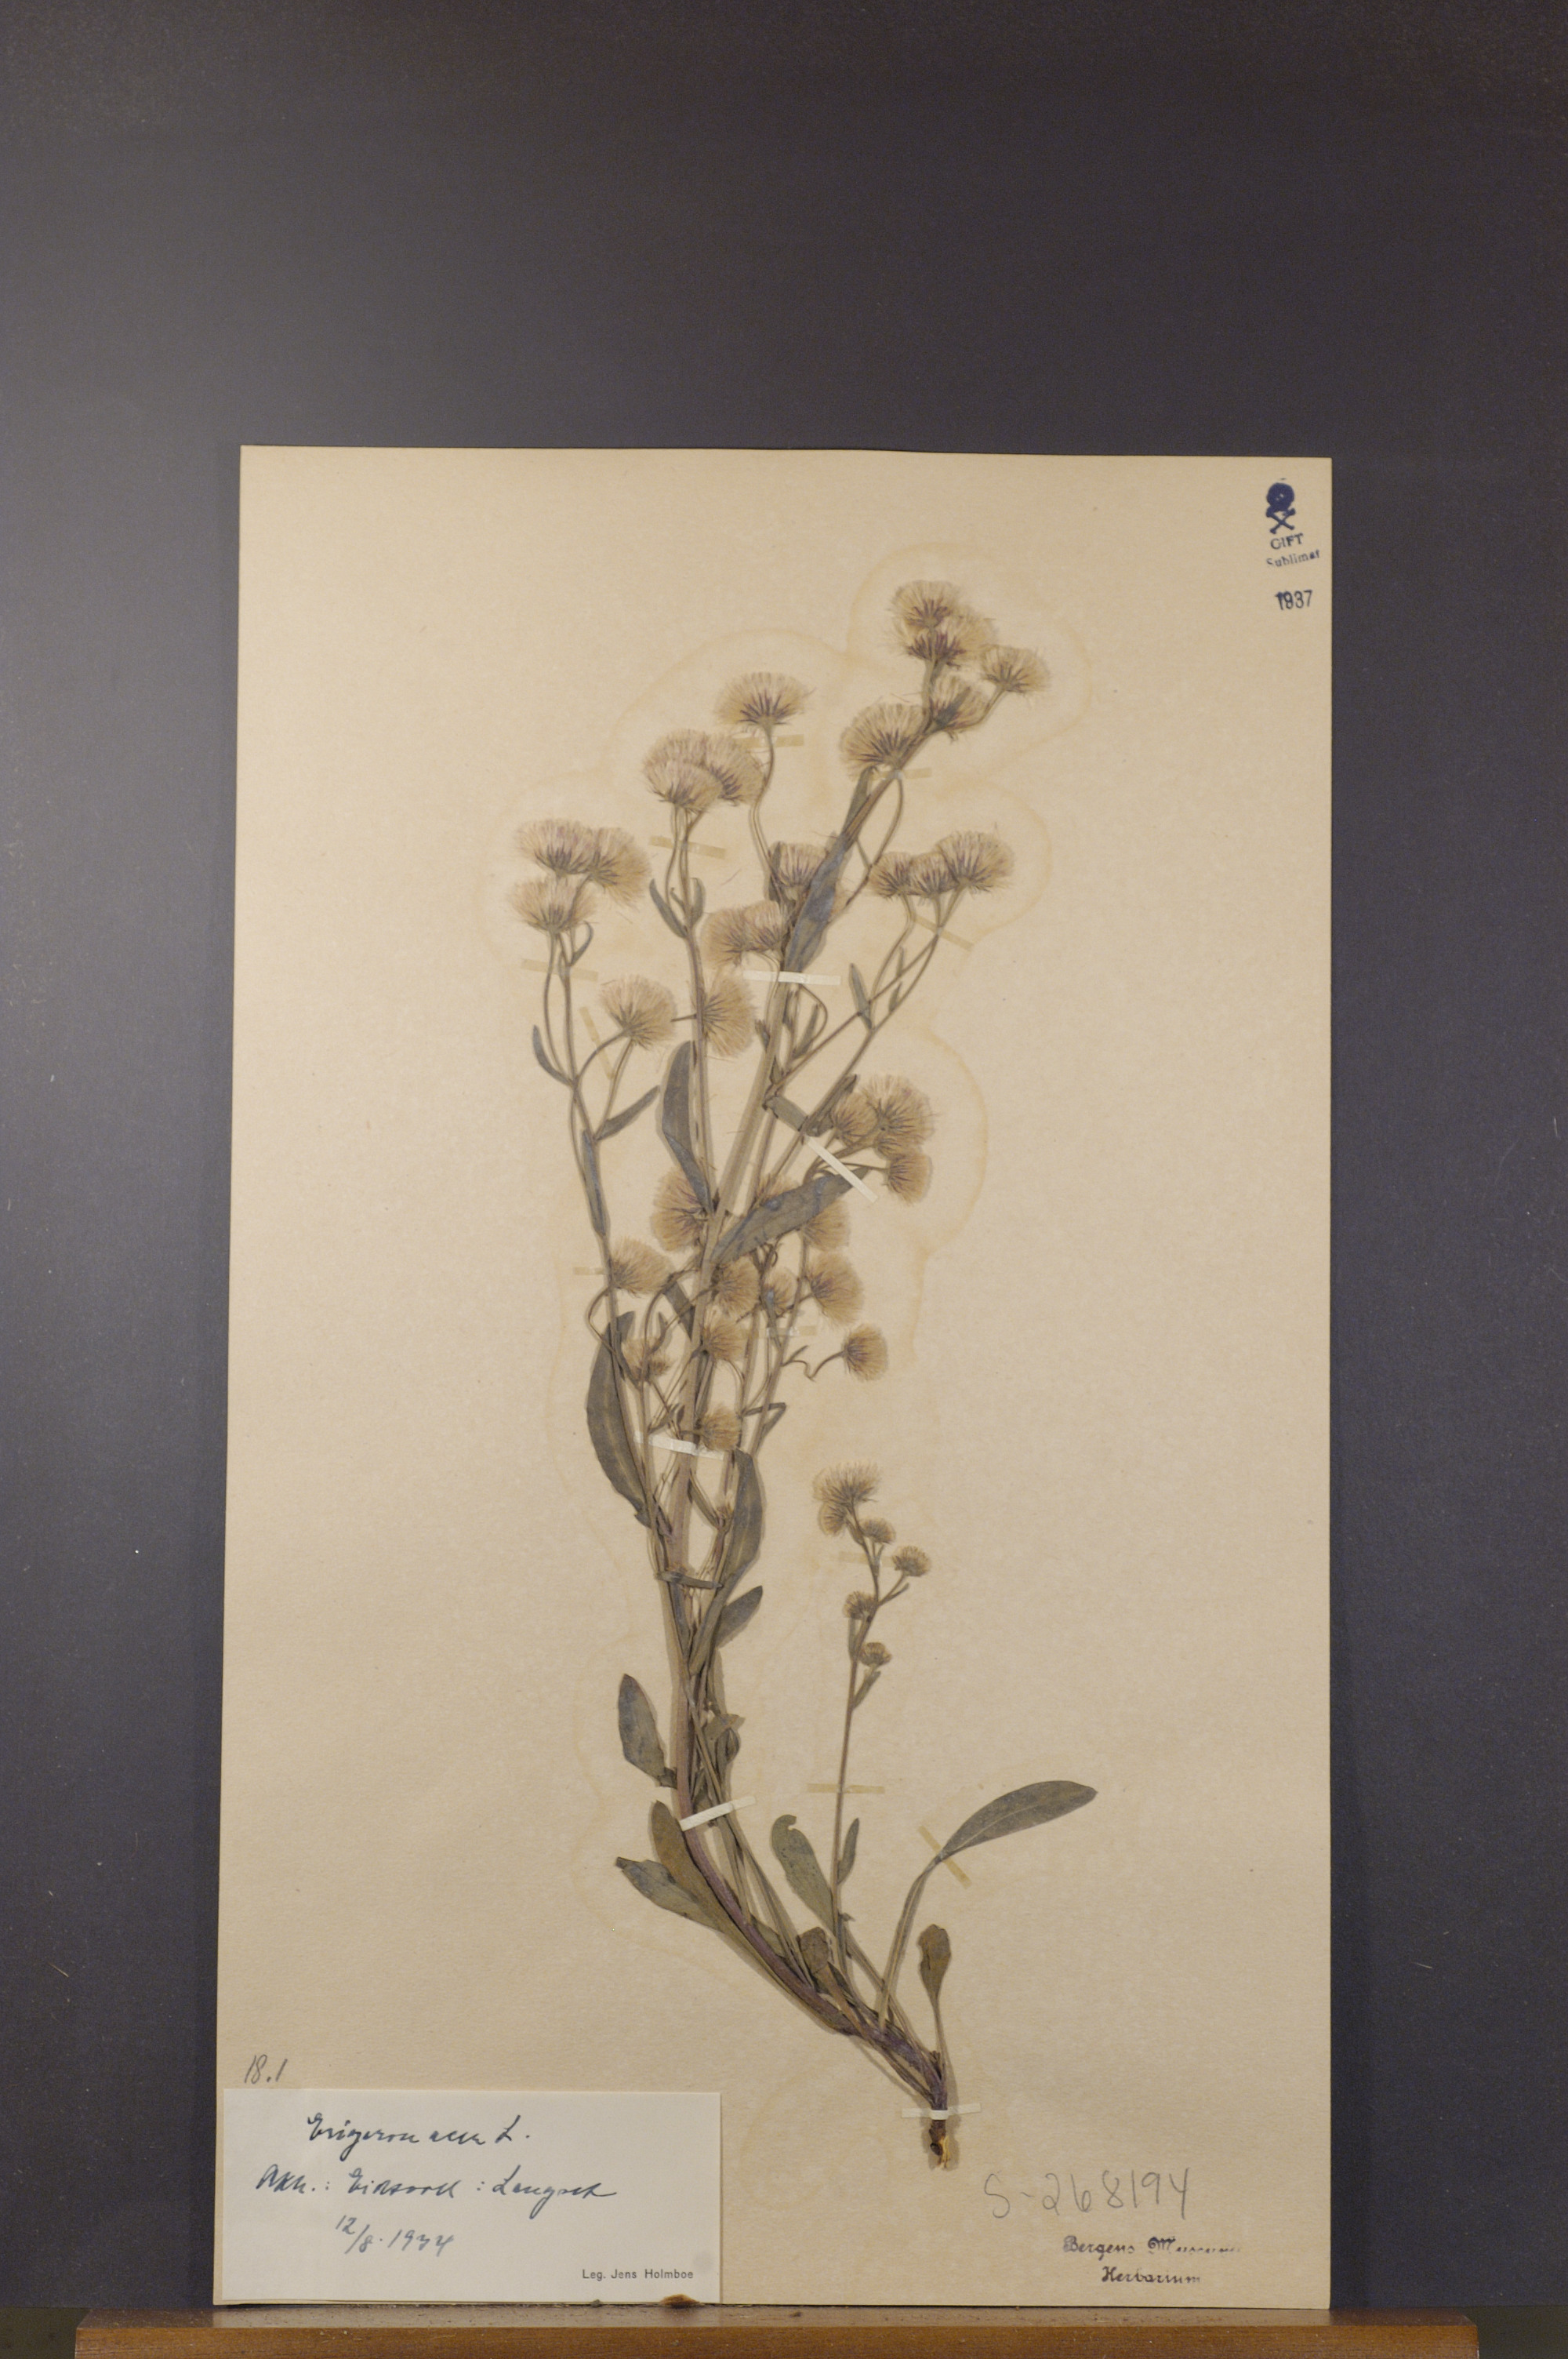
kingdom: Plantae
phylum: Tracheophyta
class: Magnoliopsida
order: Asterales
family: Asteraceae
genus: Erigeron
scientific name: Erigeron acris
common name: Blue fleabane
